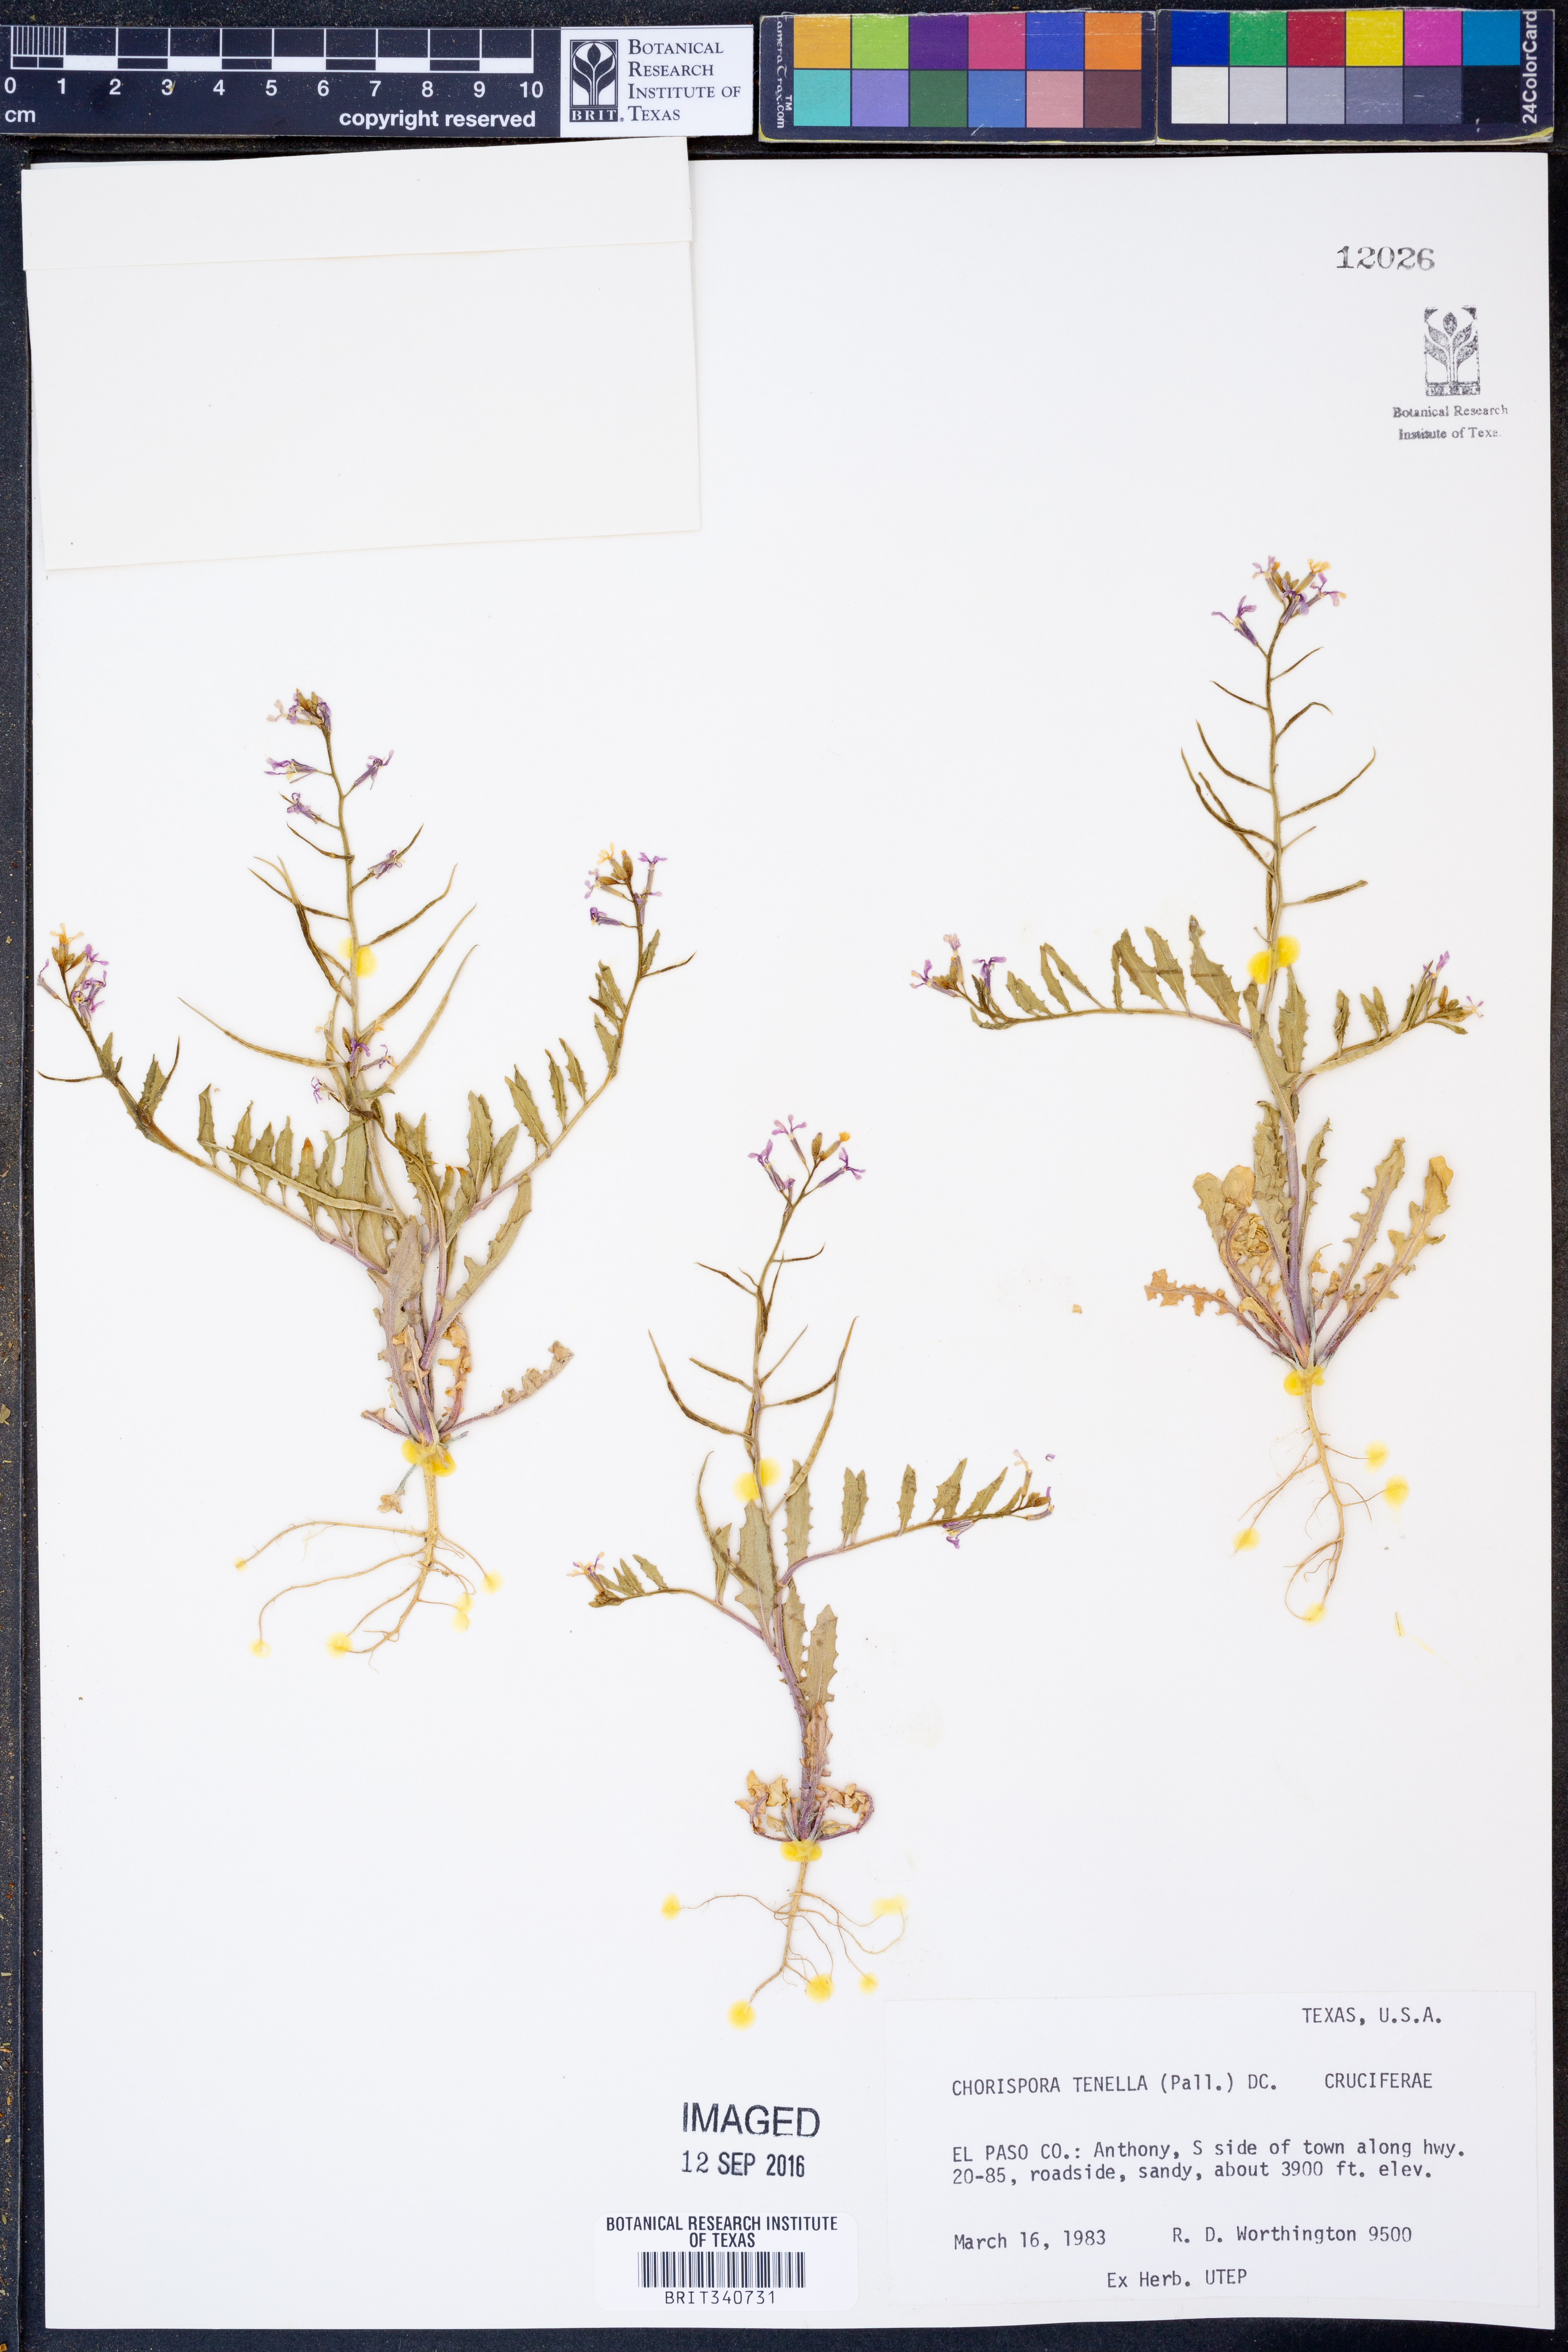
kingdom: Plantae
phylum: Tracheophyta
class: Magnoliopsida
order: Brassicales
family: Brassicaceae
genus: Chorispora
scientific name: Chorispora tenella
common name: Crossflower
